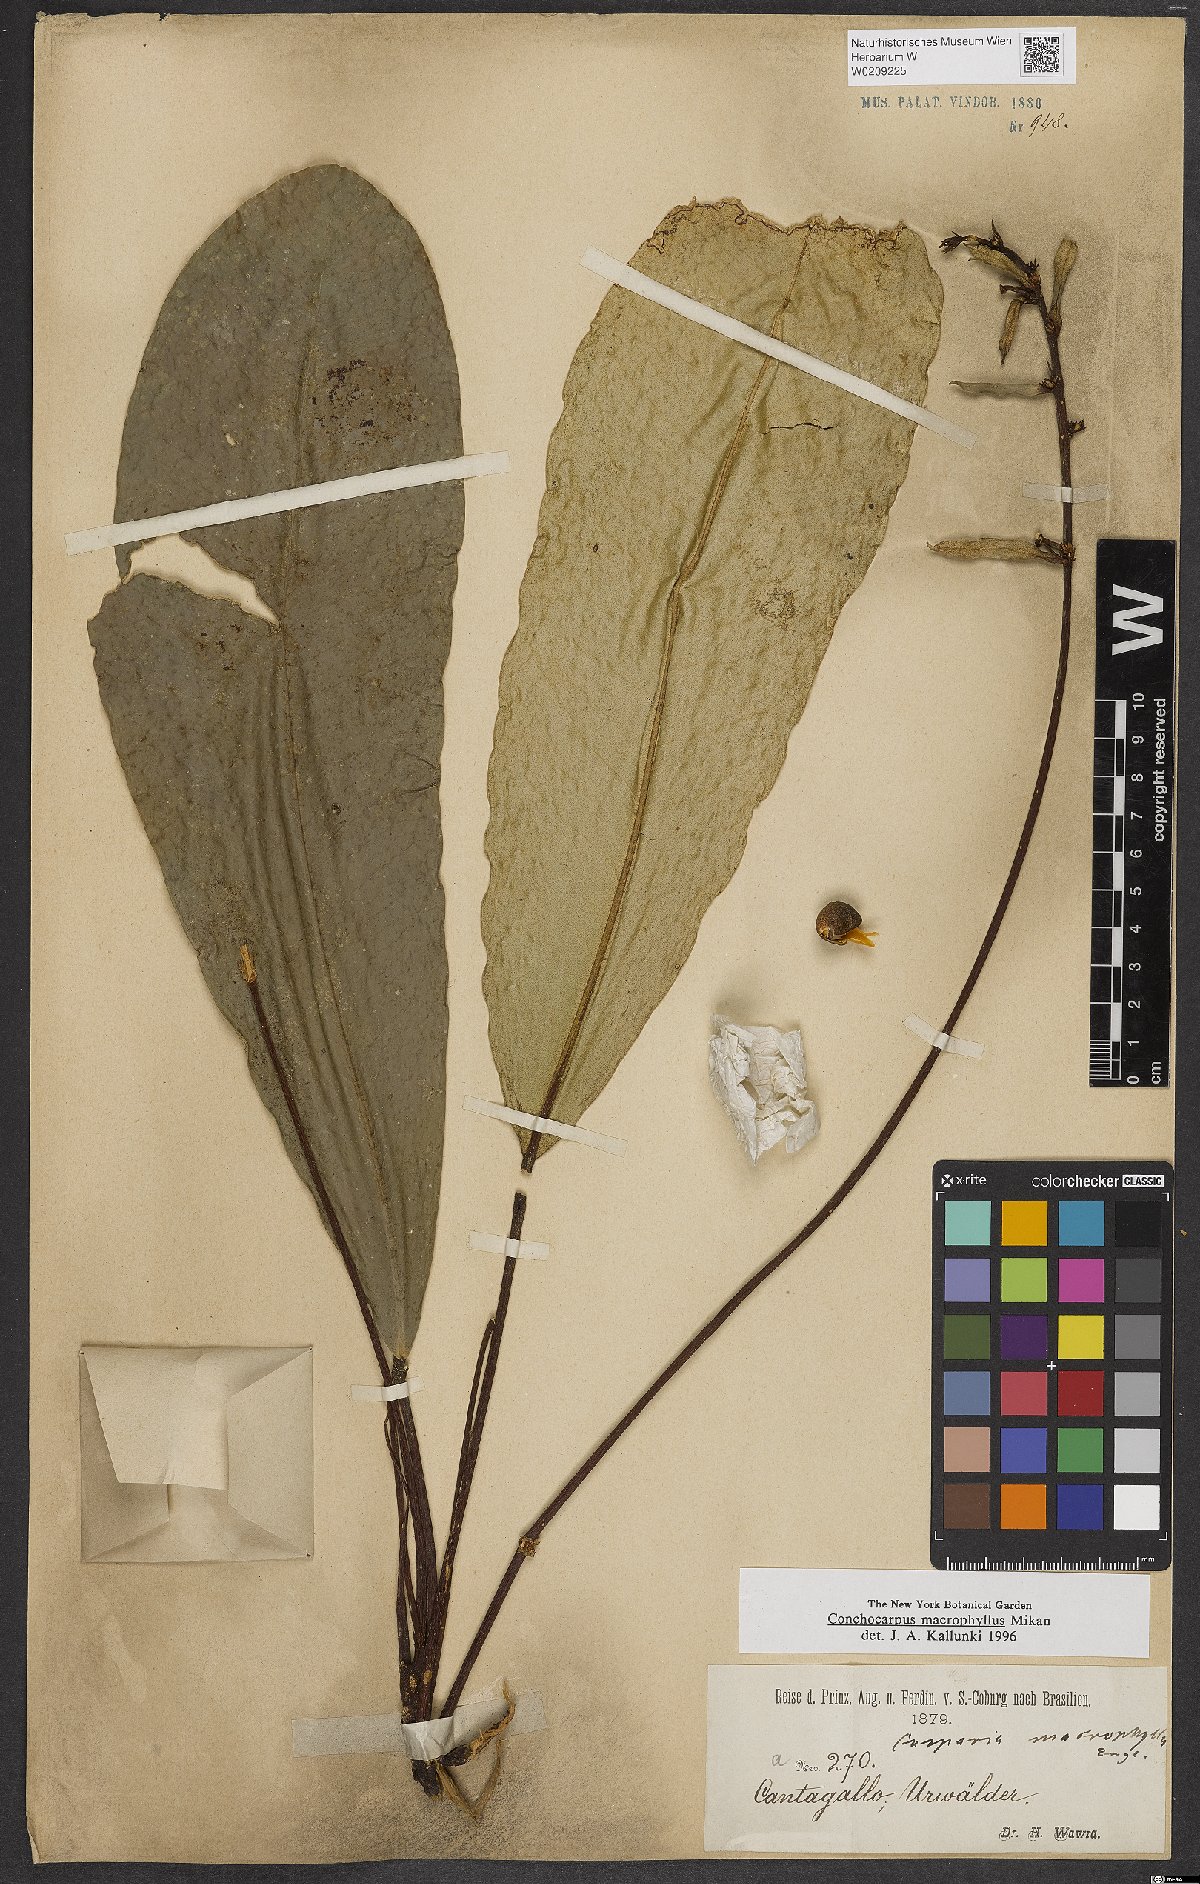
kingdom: Plantae
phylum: Tracheophyta
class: Magnoliopsida
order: Sapindales
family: Rutaceae
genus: Conchocarpus
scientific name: Conchocarpus macrophyllus
